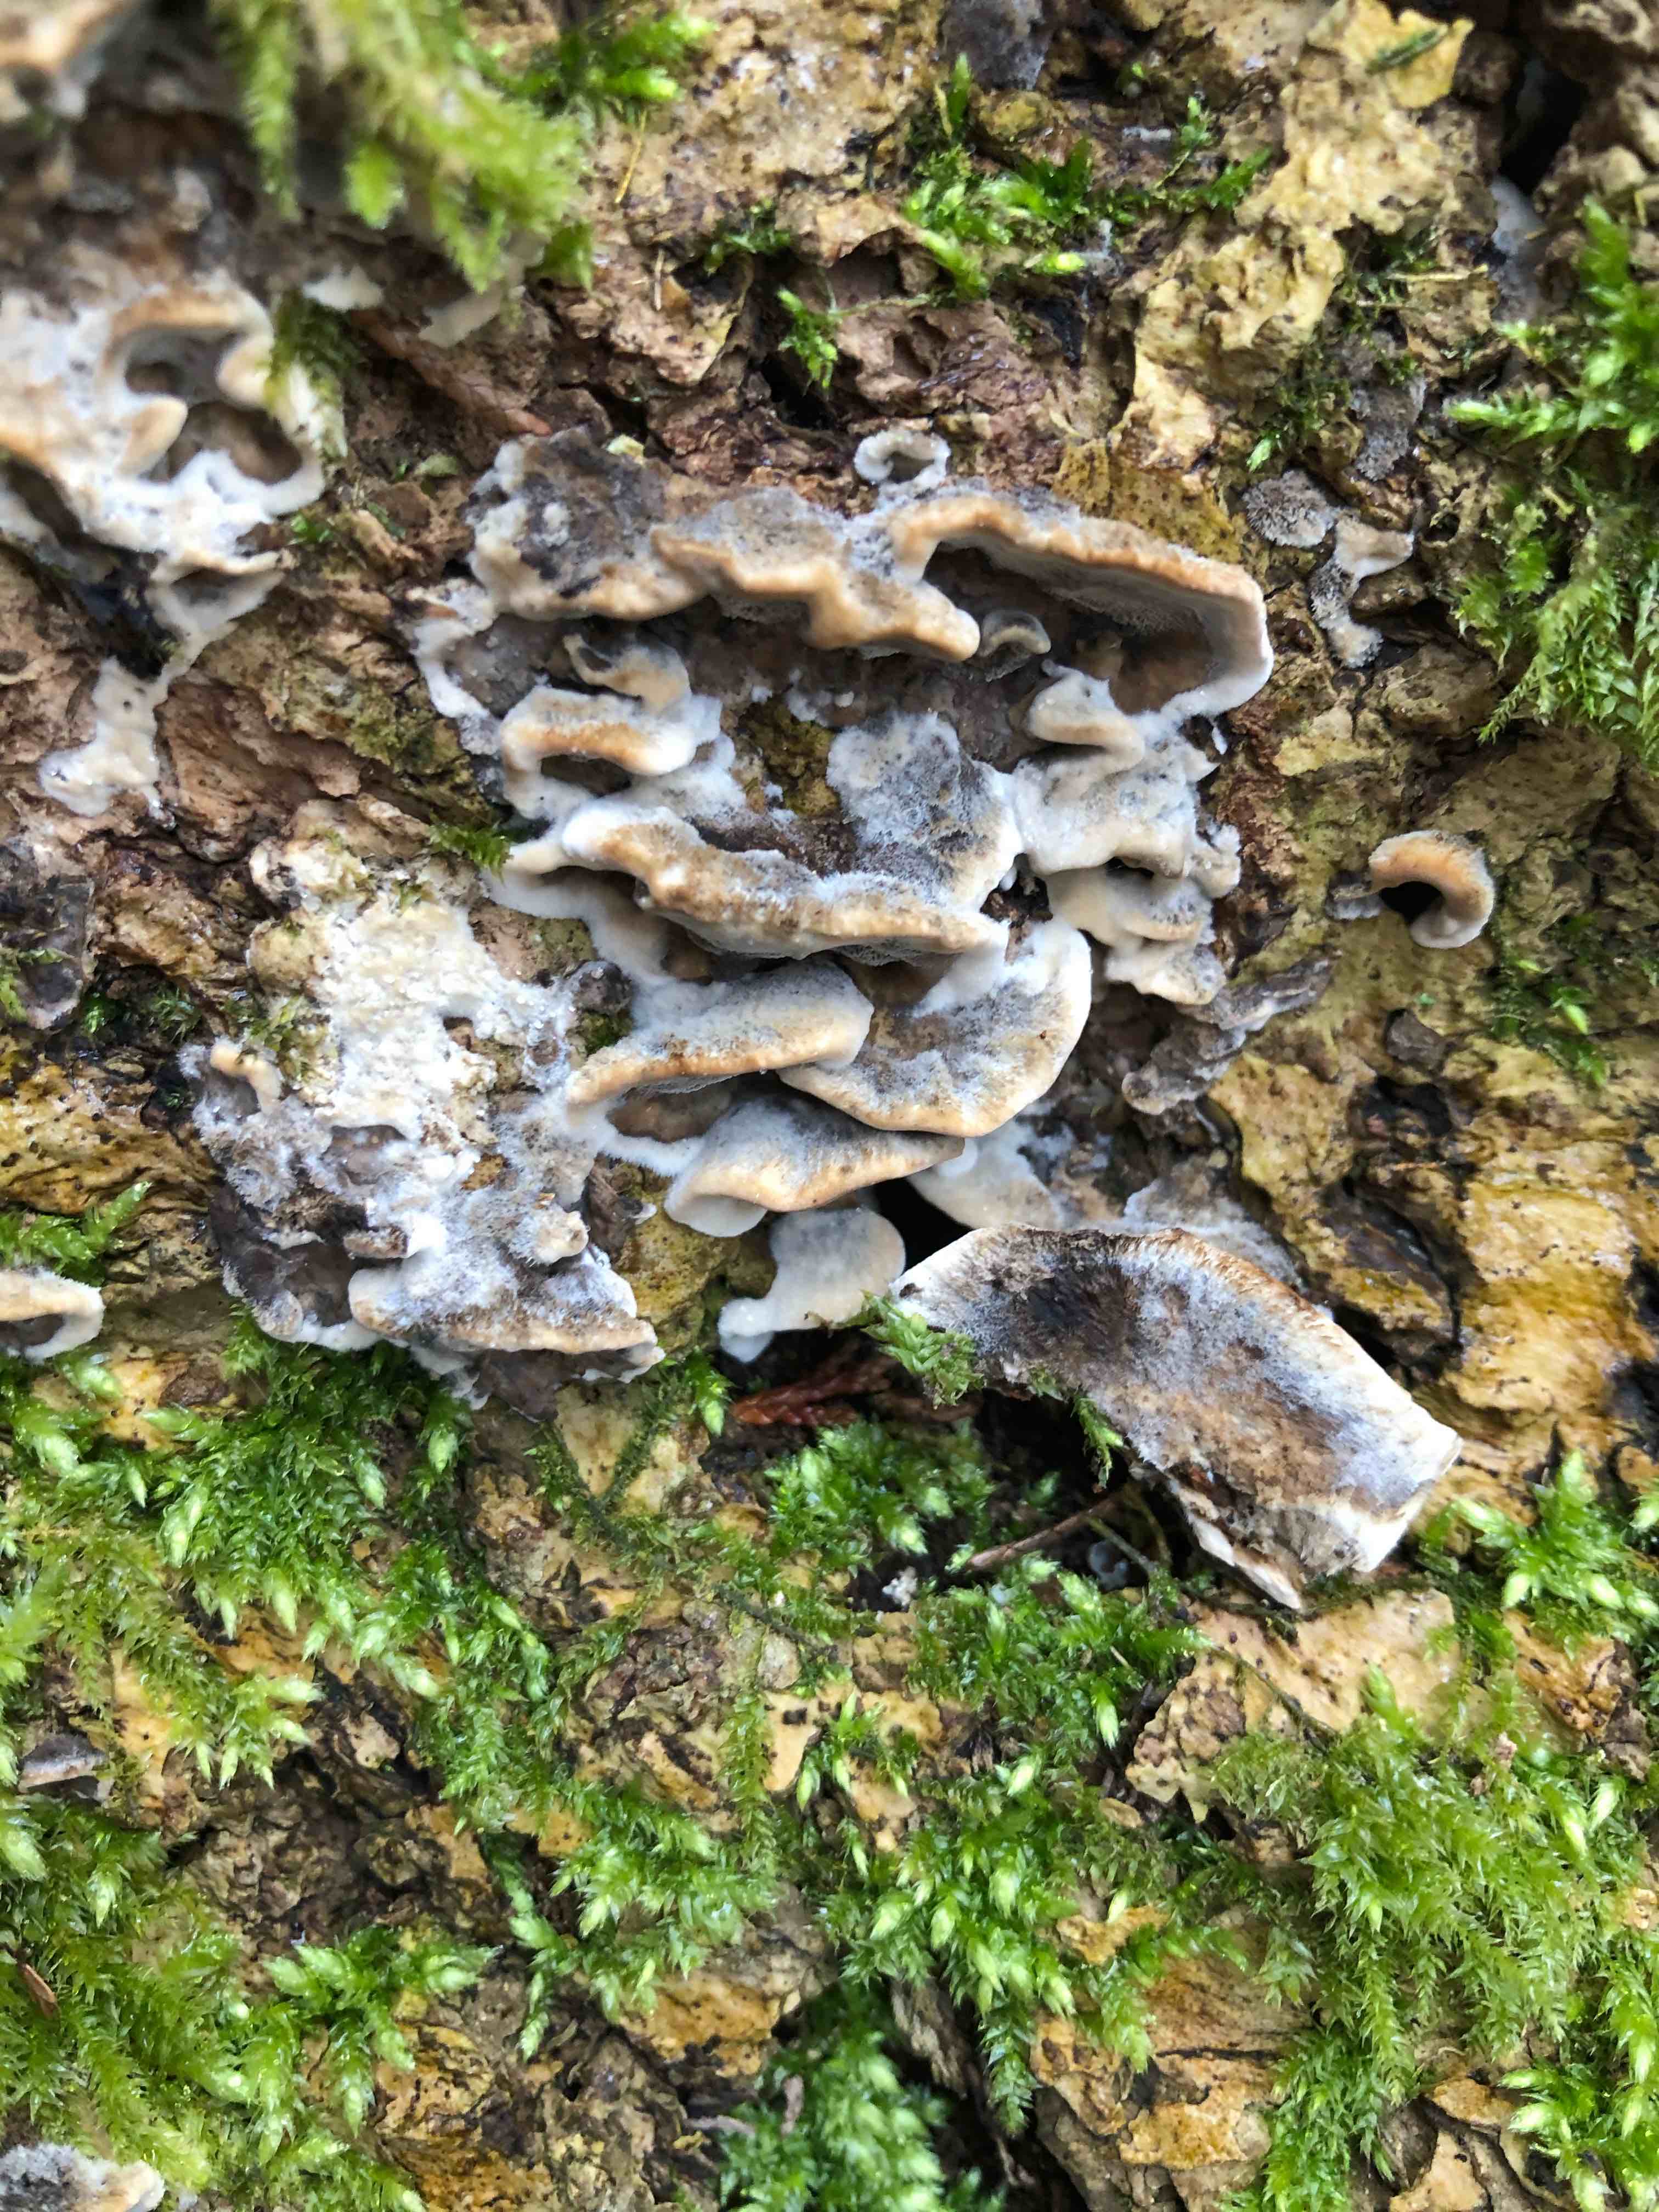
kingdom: Fungi
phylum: Basidiomycota
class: Agaricomycetes
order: Polyporales
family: Phanerochaetaceae
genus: Bjerkandera
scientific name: Bjerkandera adusta
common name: sveden sodporesvamp
